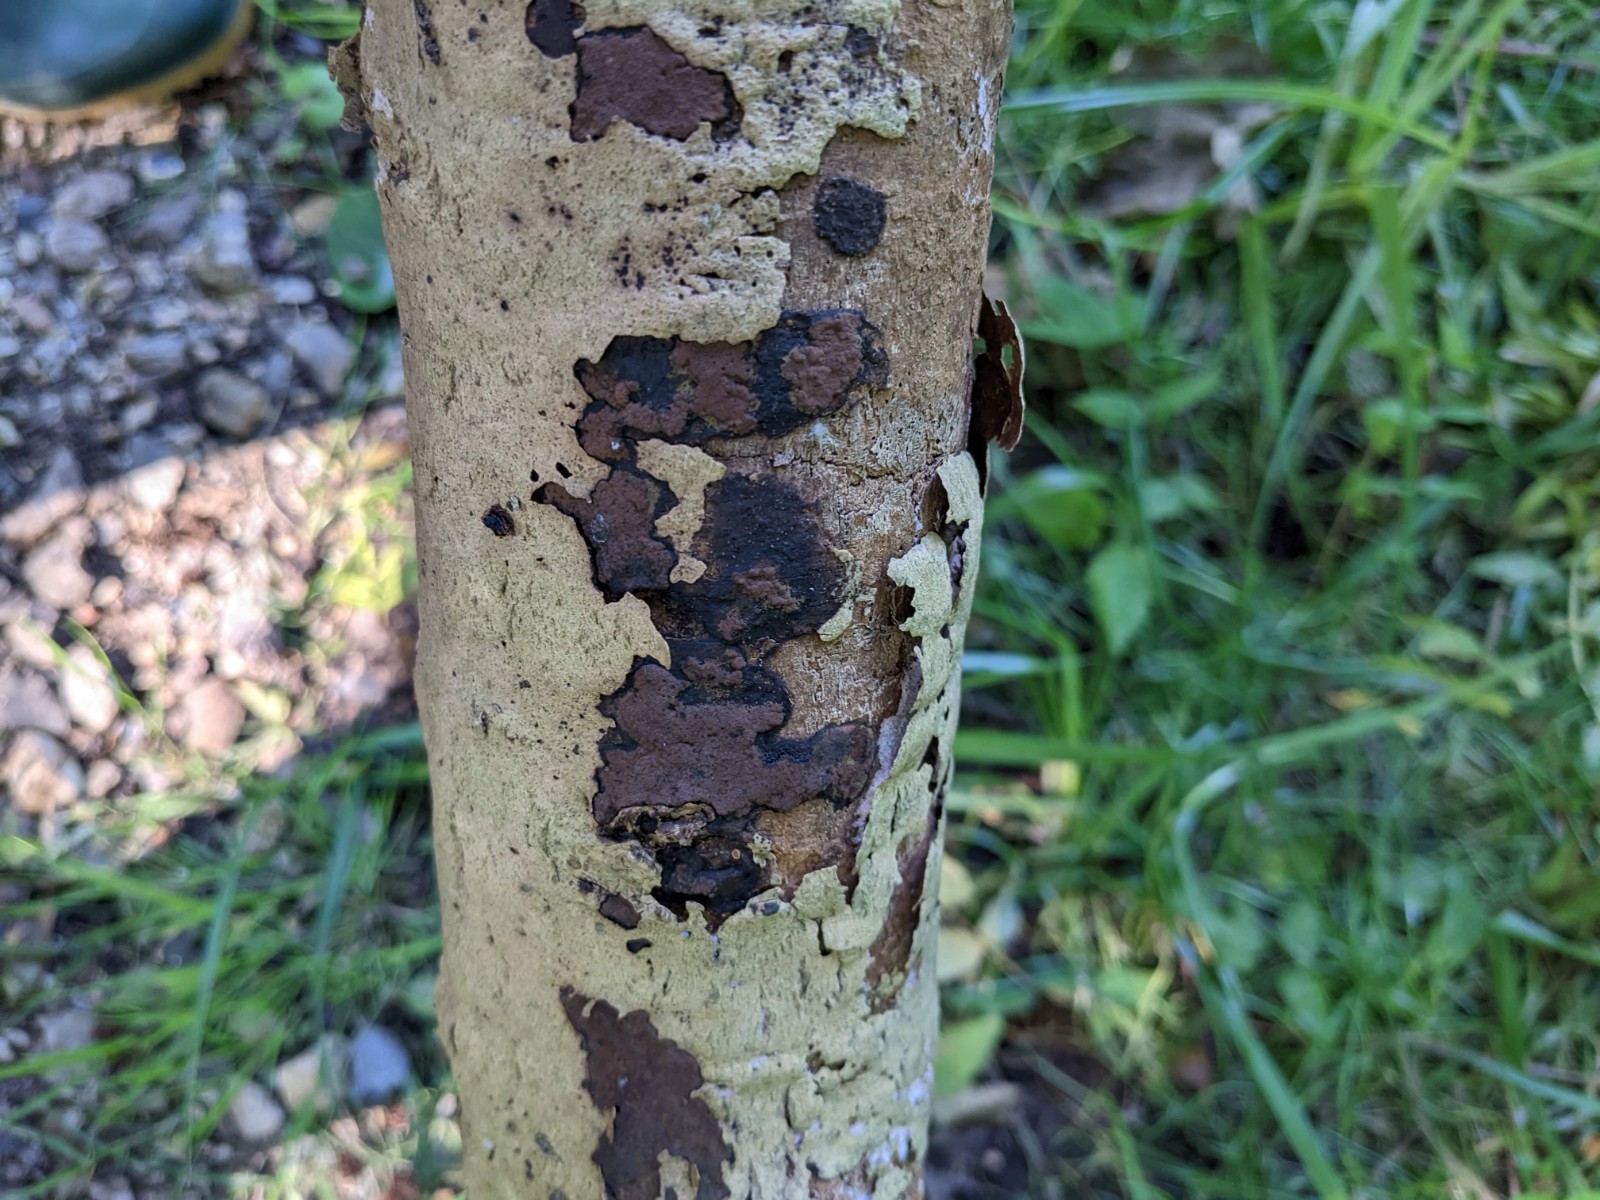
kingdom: Fungi
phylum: Ascomycota
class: Sordariomycetes
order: Xylariales
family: Hypoxylaceae
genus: Hypoxylon
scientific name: Hypoxylon petriniae
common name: nedsænket kulbær
